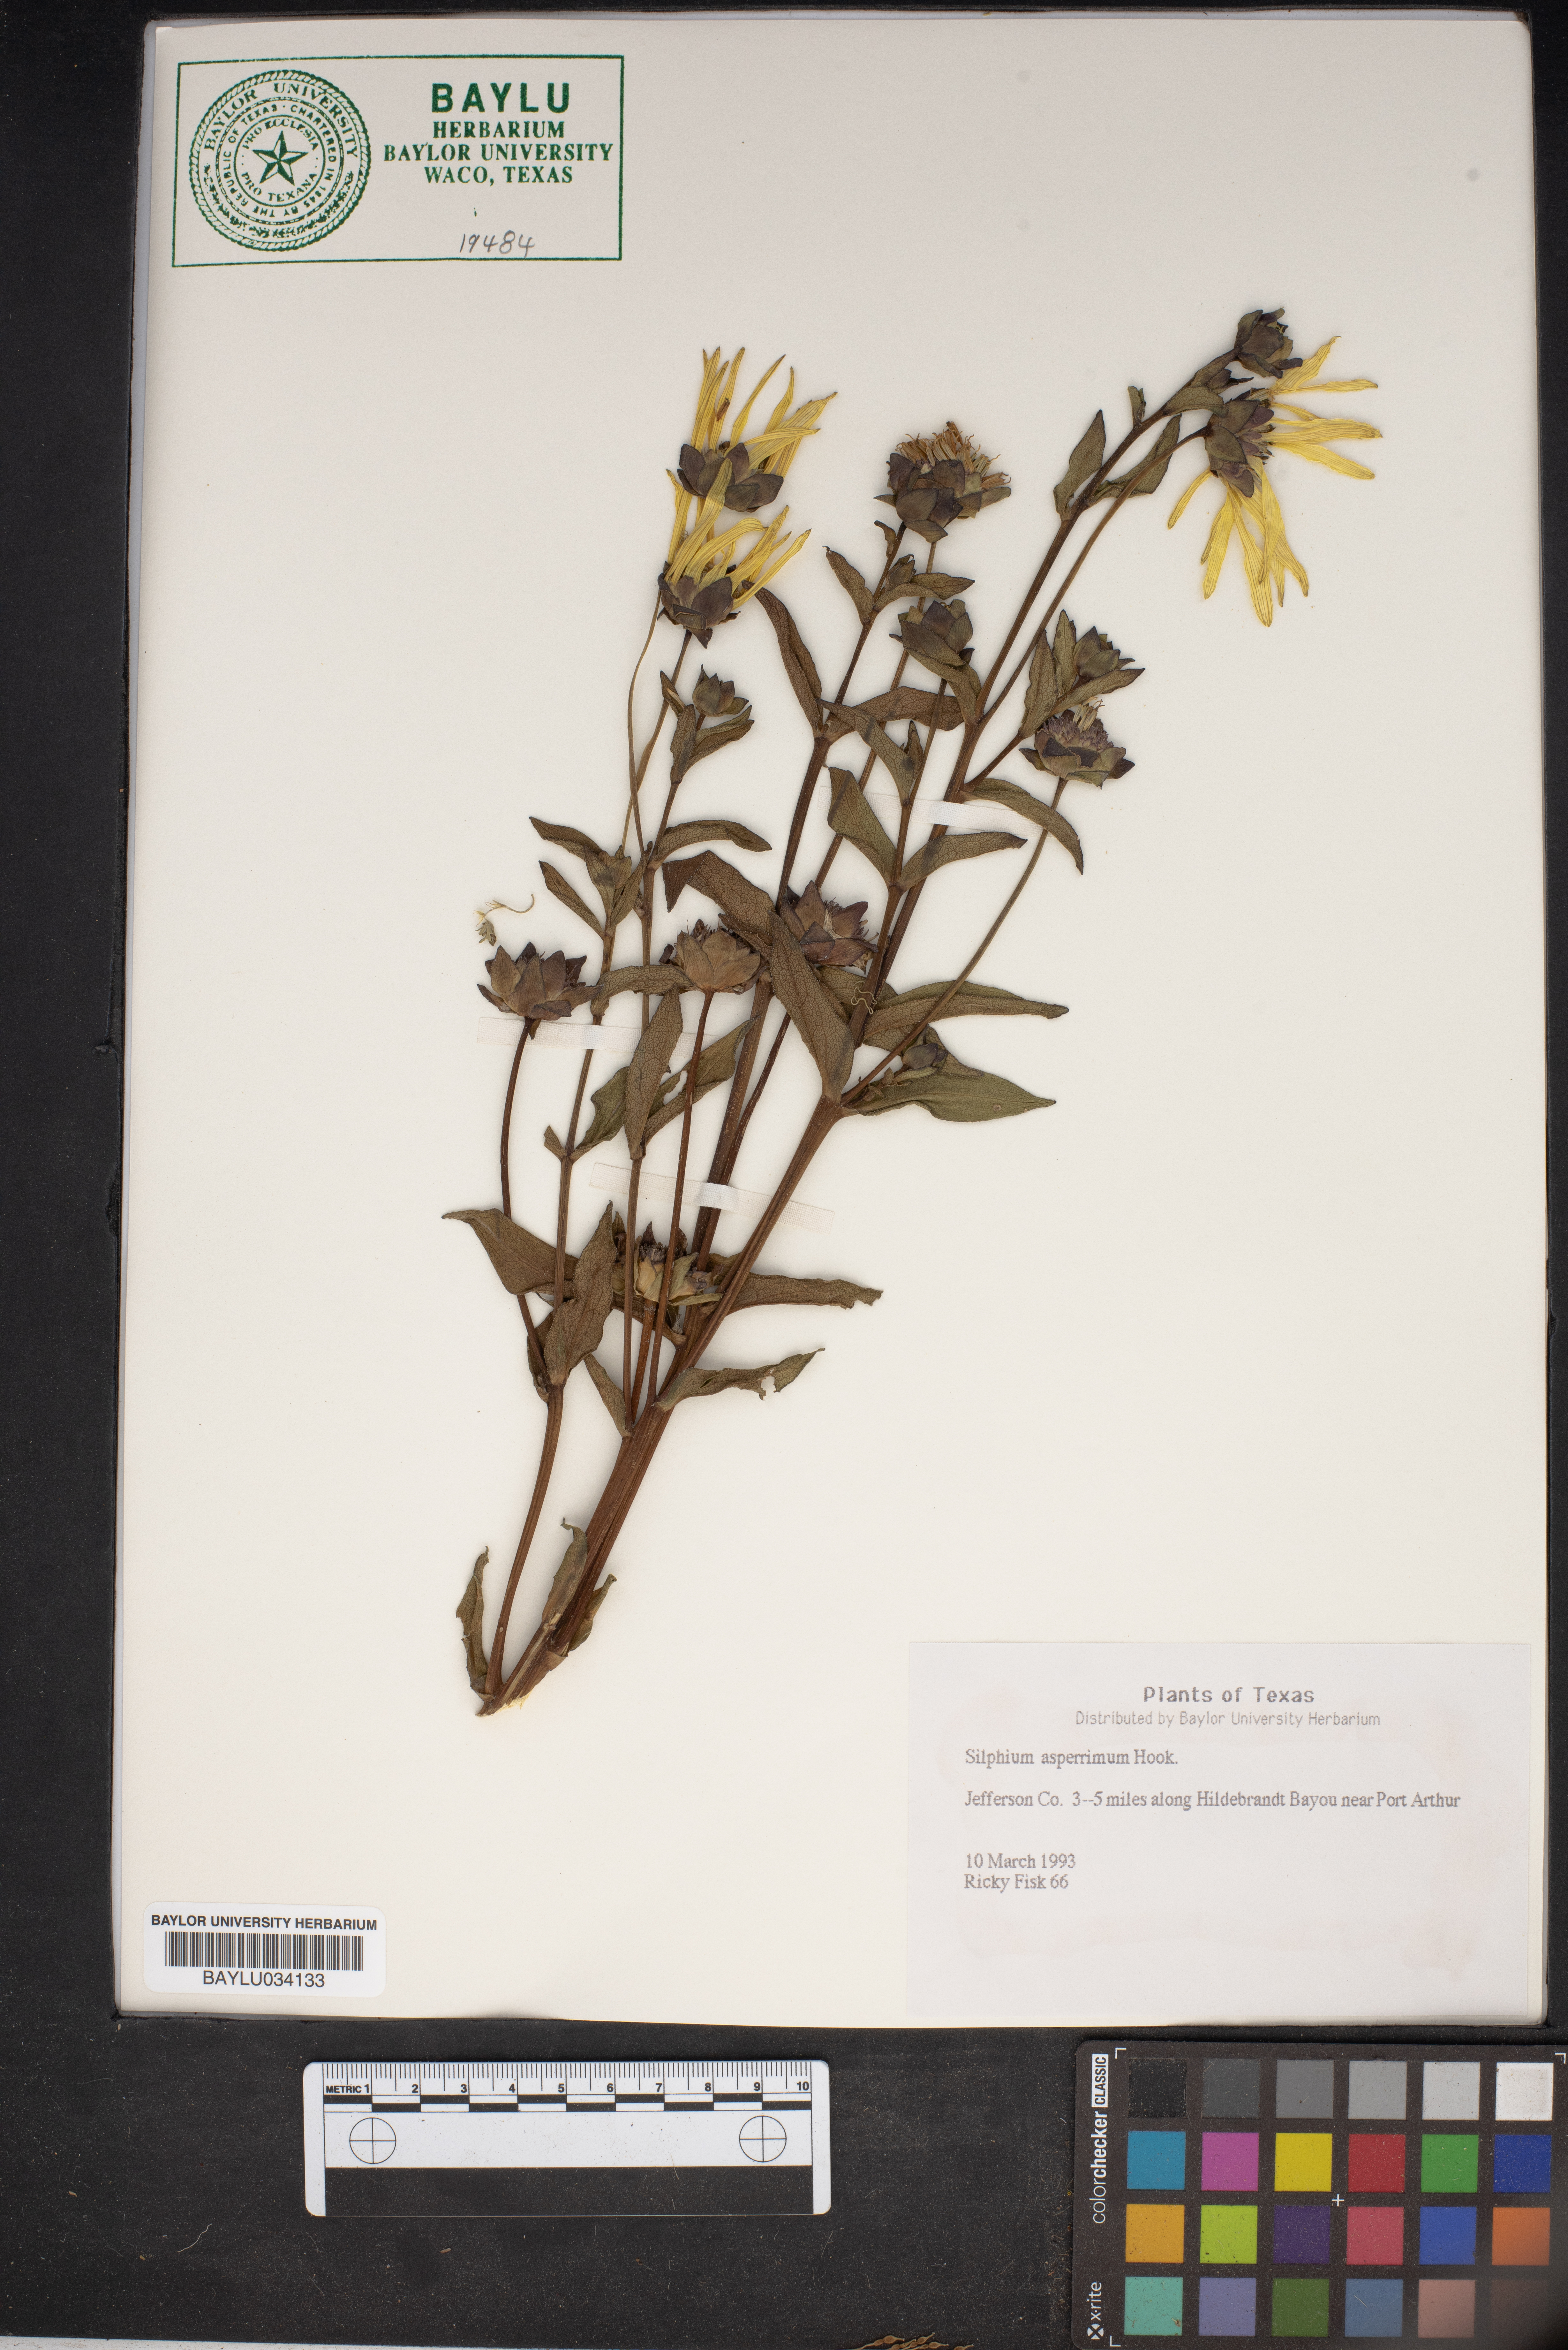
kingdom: Plantae
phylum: Tracheophyta
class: Magnoliopsida
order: Asterales
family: Asteraceae
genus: Silphium
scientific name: Silphium asperrimum
